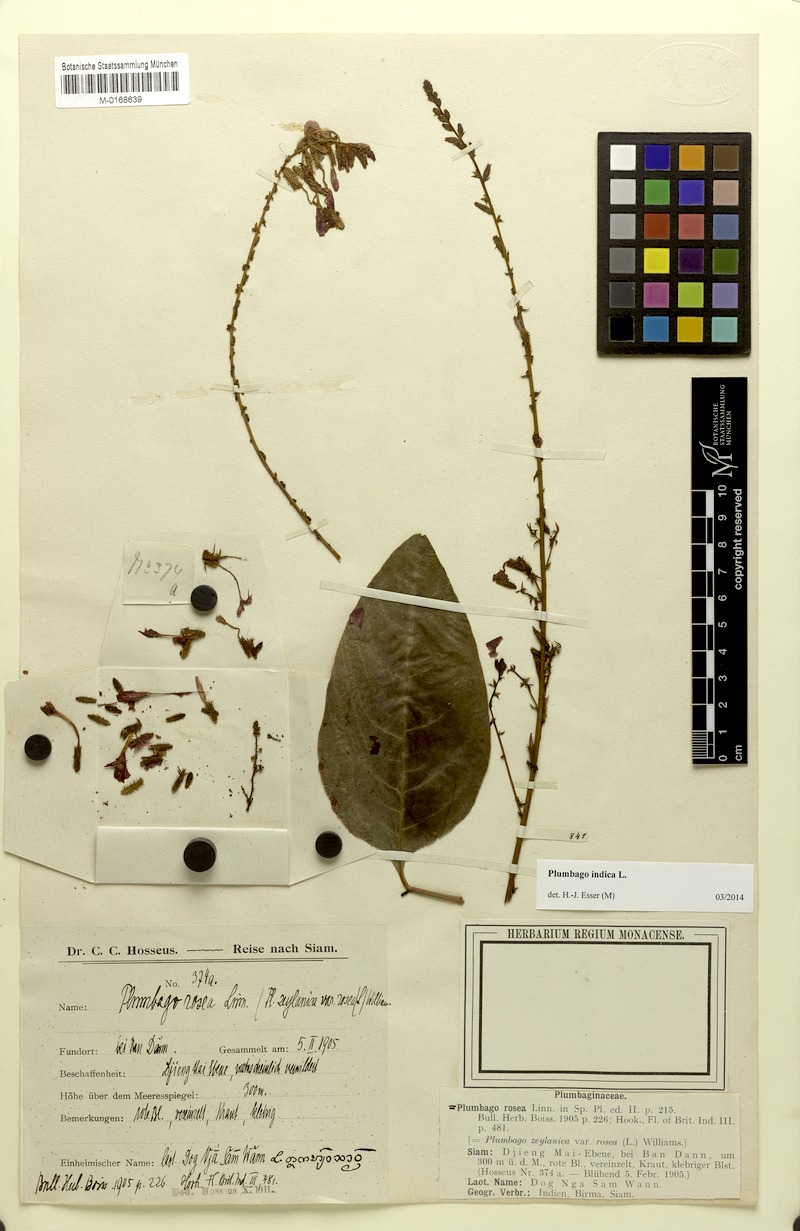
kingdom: Plantae
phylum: Tracheophyta
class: Magnoliopsida
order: Caryophyllales
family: Plumbaginaceae
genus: Plumbago
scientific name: Plumbago indica
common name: Indian leadwort
